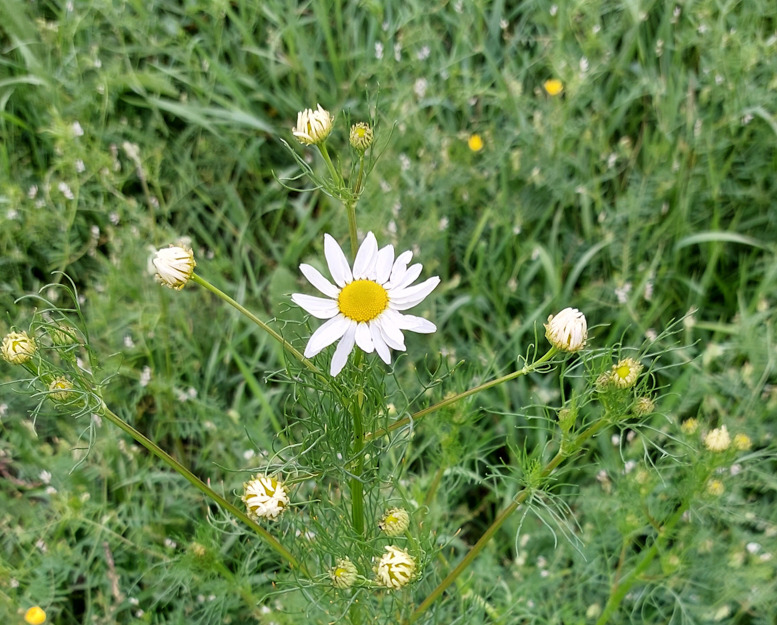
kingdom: Plantae
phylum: Tracheophyta
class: Magnoliopsida
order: Asterales
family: Asteraceae
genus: Tripleurospermum
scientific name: Tripleurospermum inodorum
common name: Lugtløs kamille
